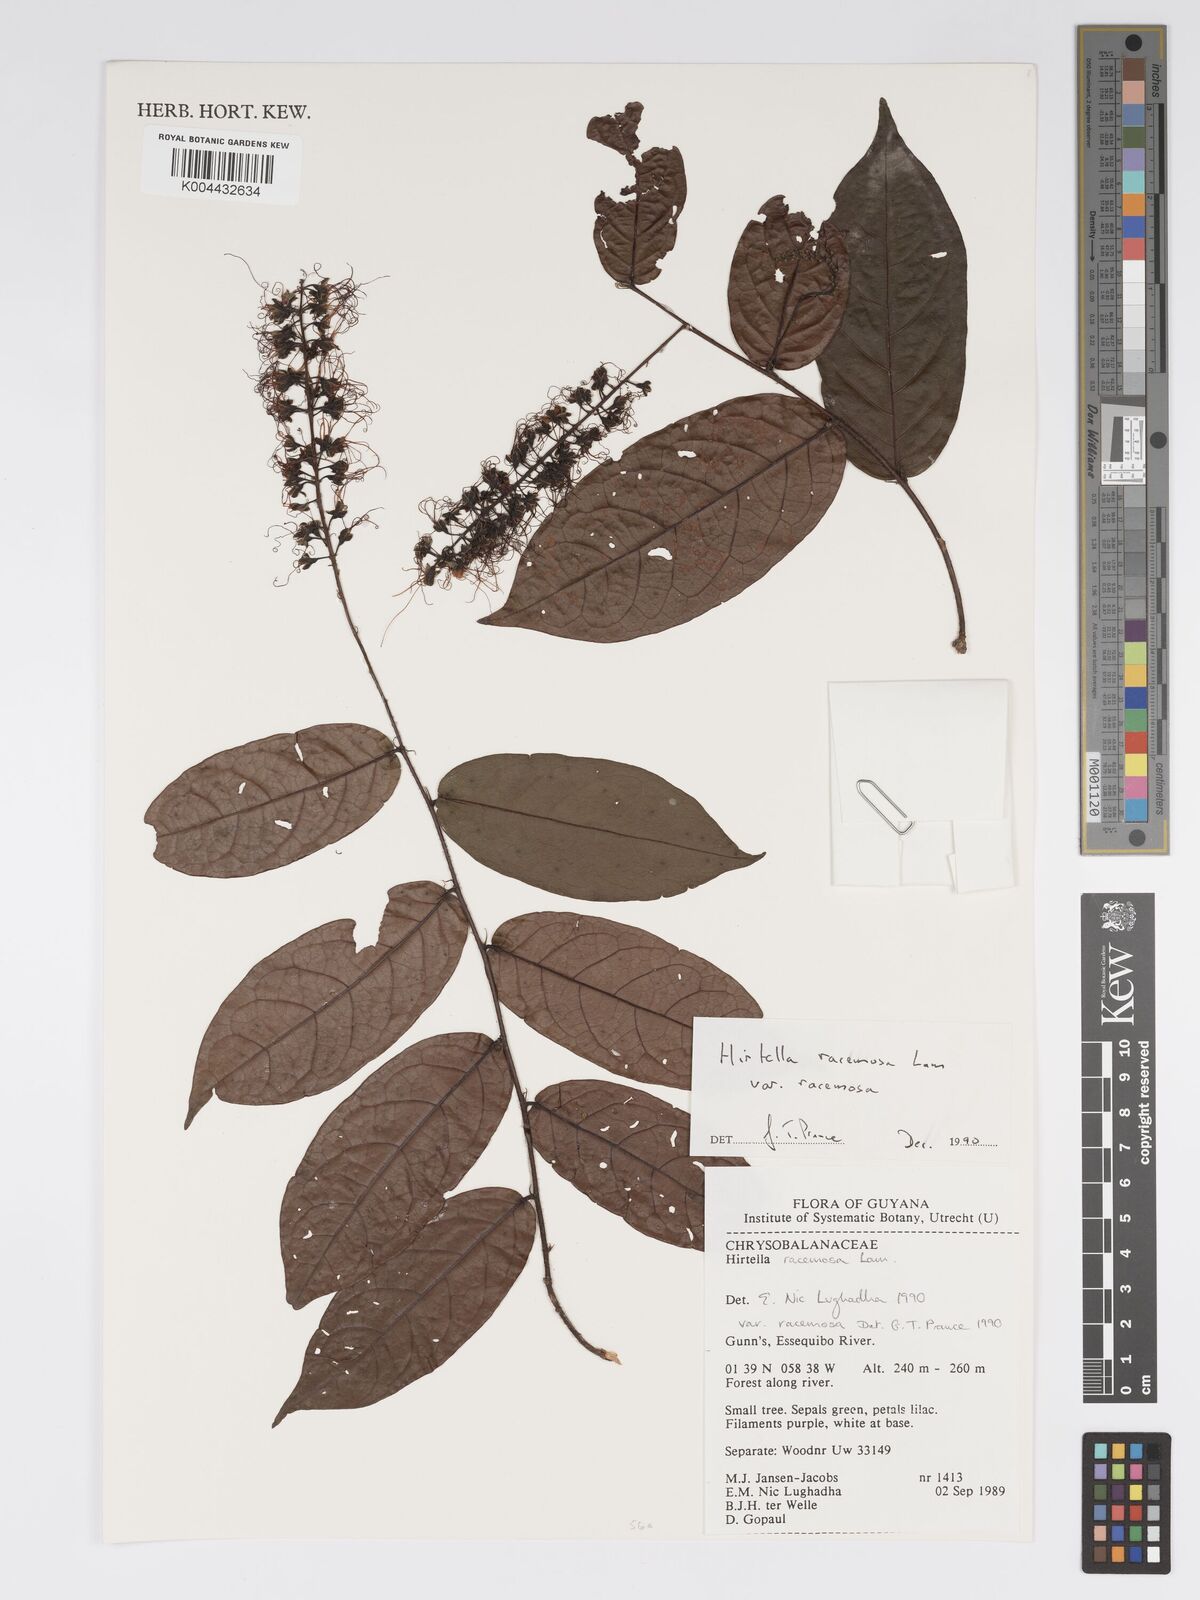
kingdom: Plantae
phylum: Tracheophyta
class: Magnoliopsida
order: Malpighiales
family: Chrysobalanaceae
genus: Hirtella
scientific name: Hirtella racemosa
